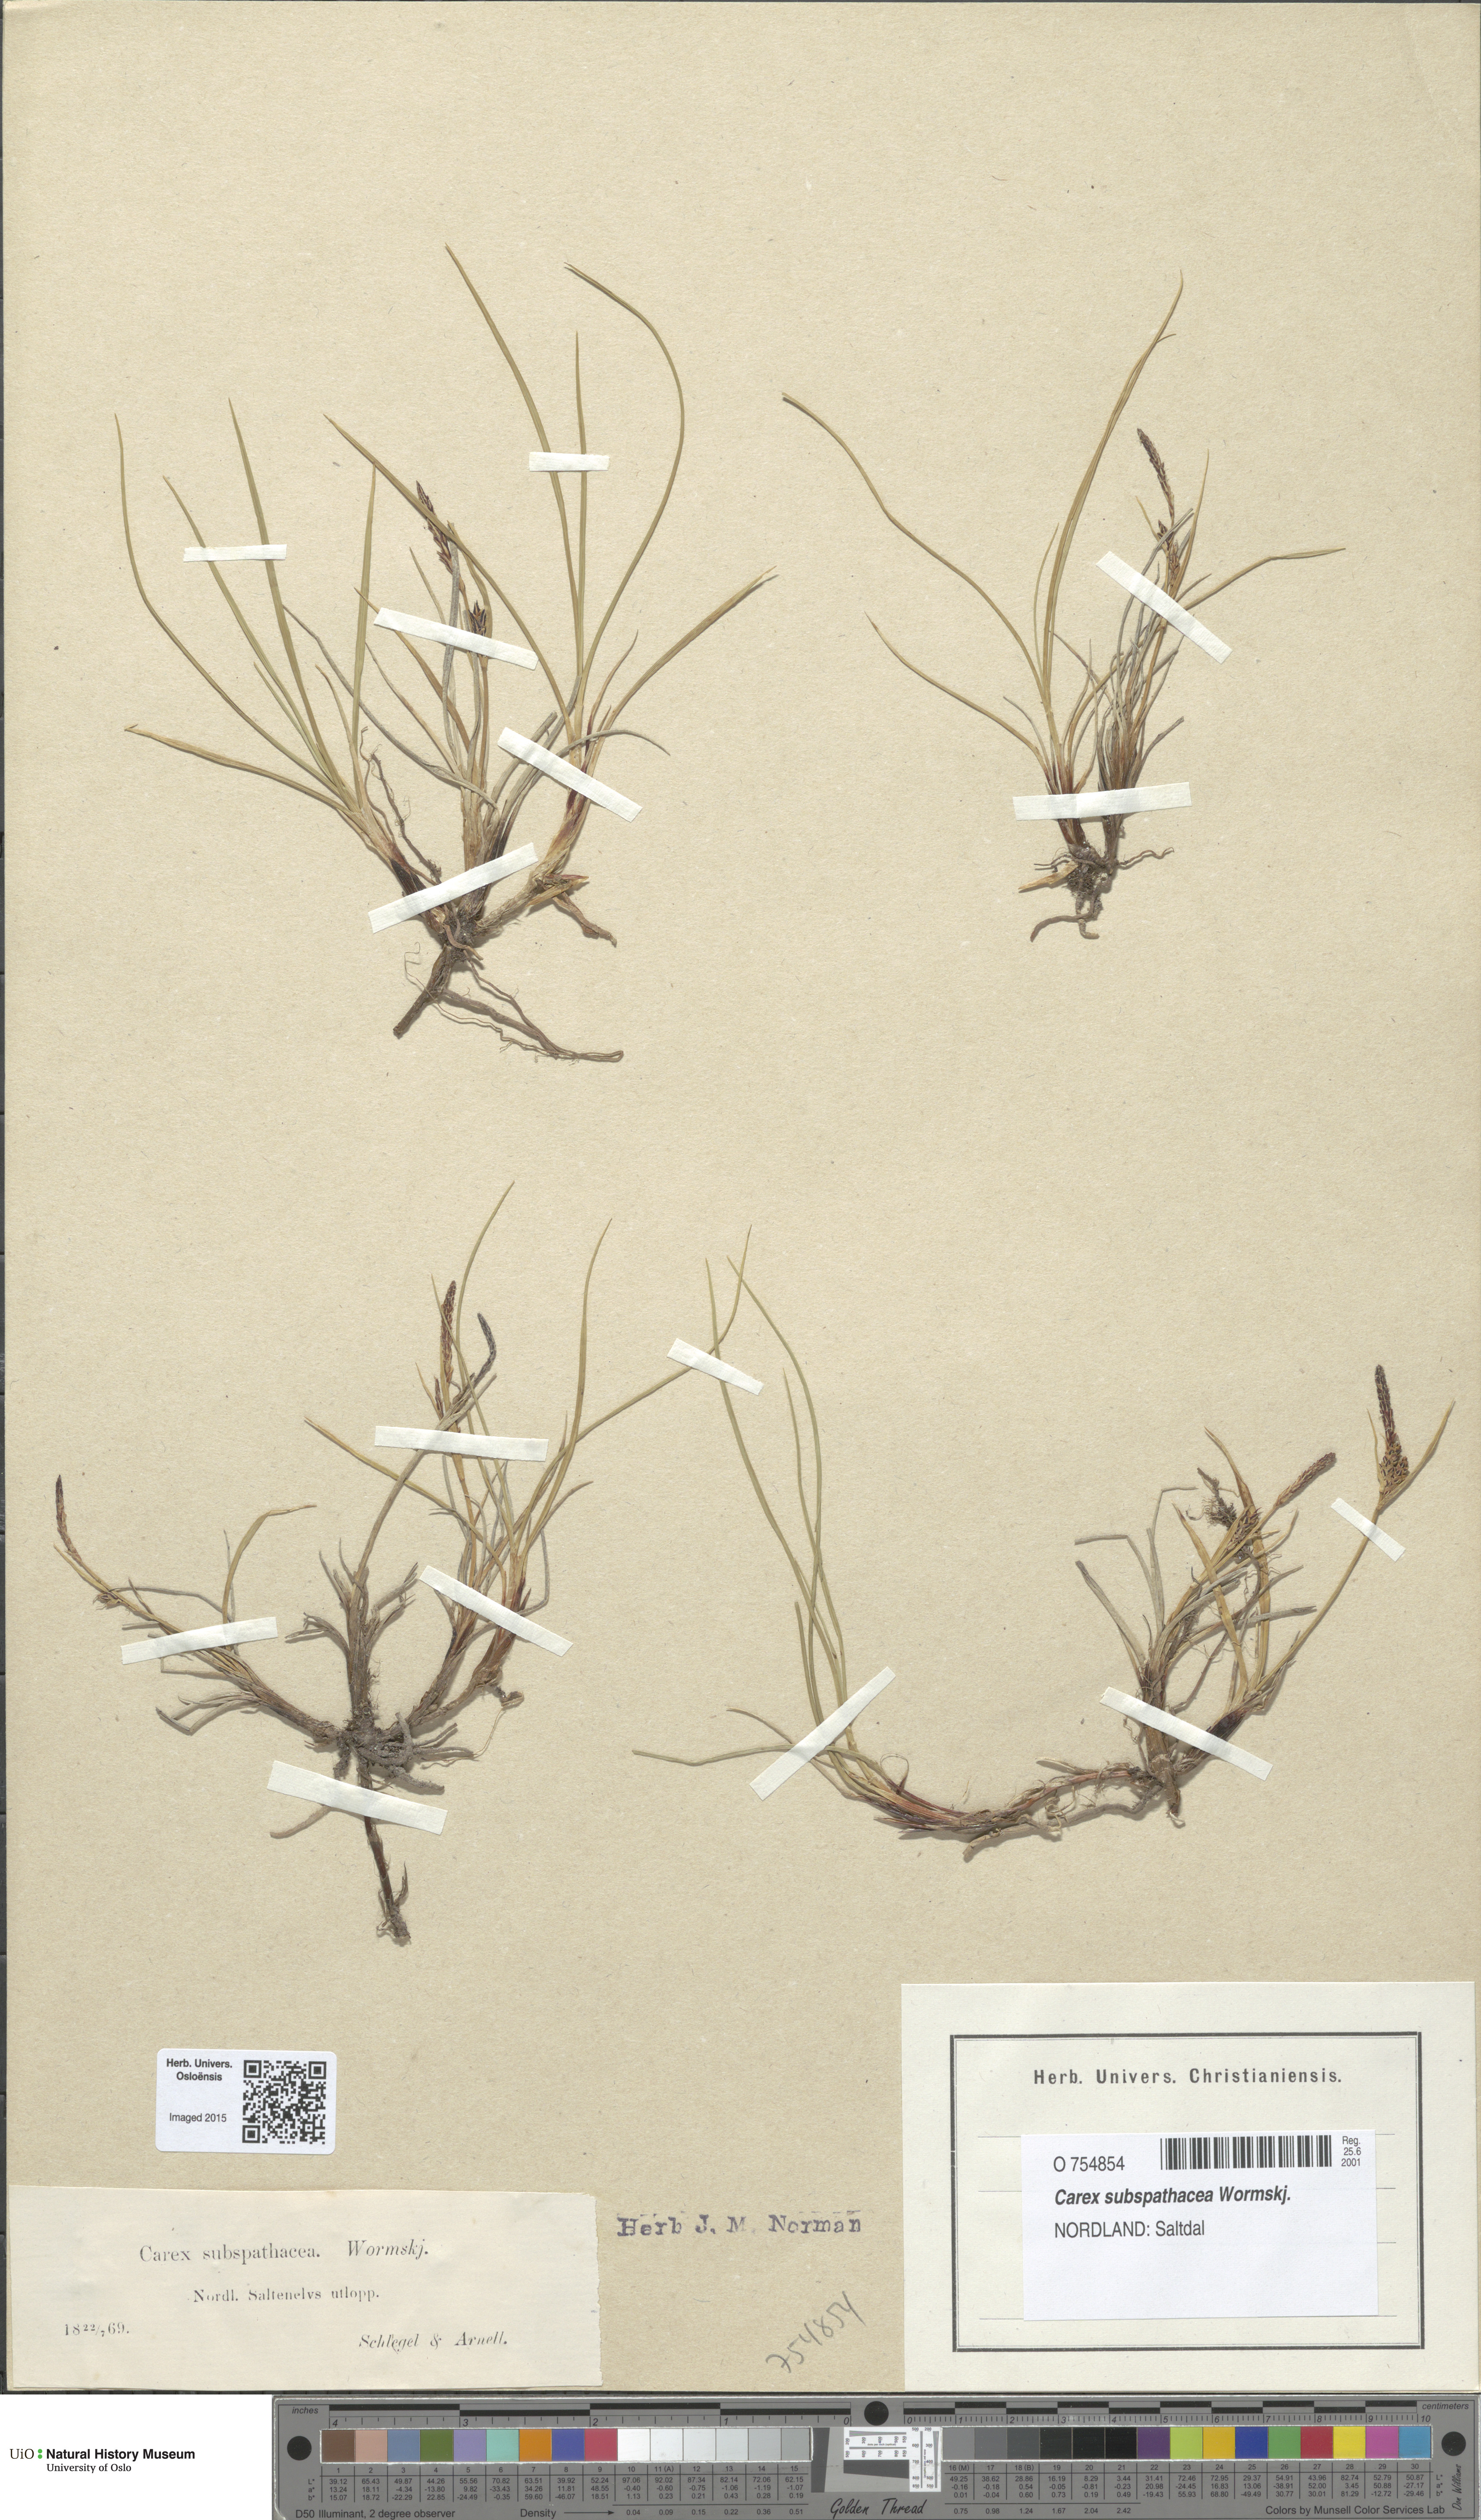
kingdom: Plantae
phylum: Tracheophyta
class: Liliopsida
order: Poales
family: Cyperaceae
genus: Carex
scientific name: Carex subspathacea
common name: Hoppner's sedge
